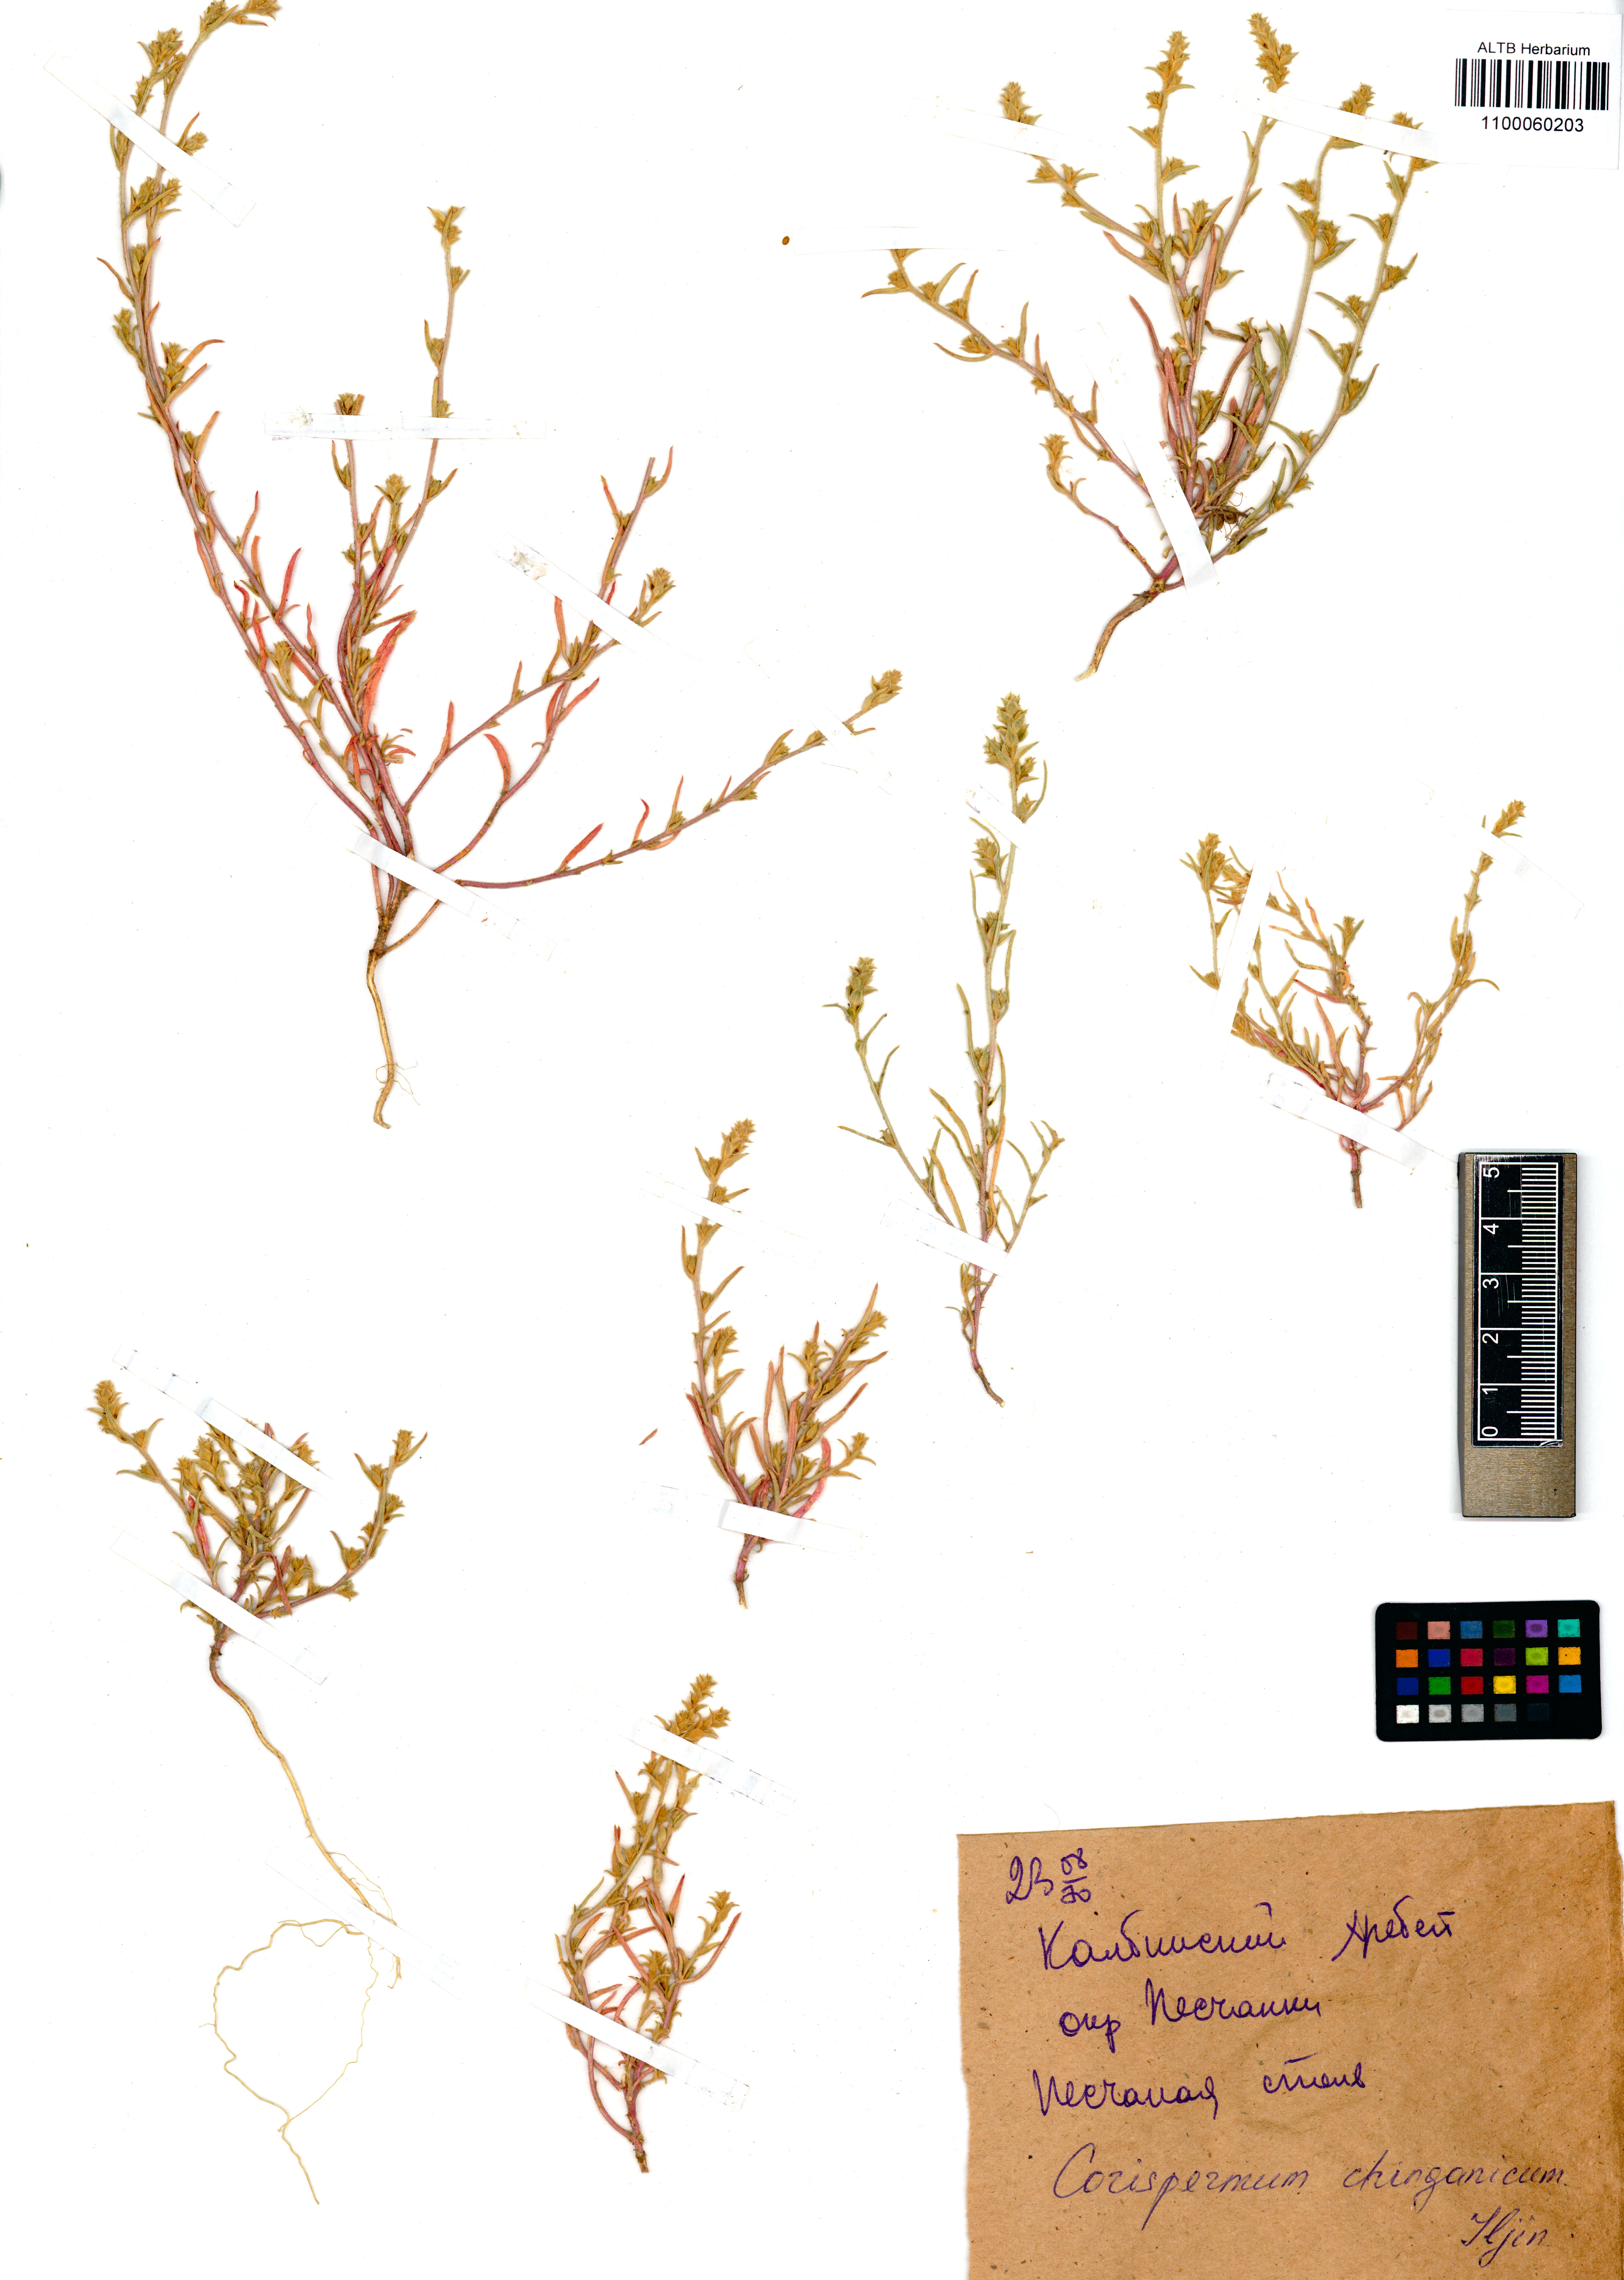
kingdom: Plantae
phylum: Tracheophyta
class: Magnoliopsida
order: Caryophyllales
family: Amaranthaceae
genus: Corispermum
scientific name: Corispermum chinganicum
